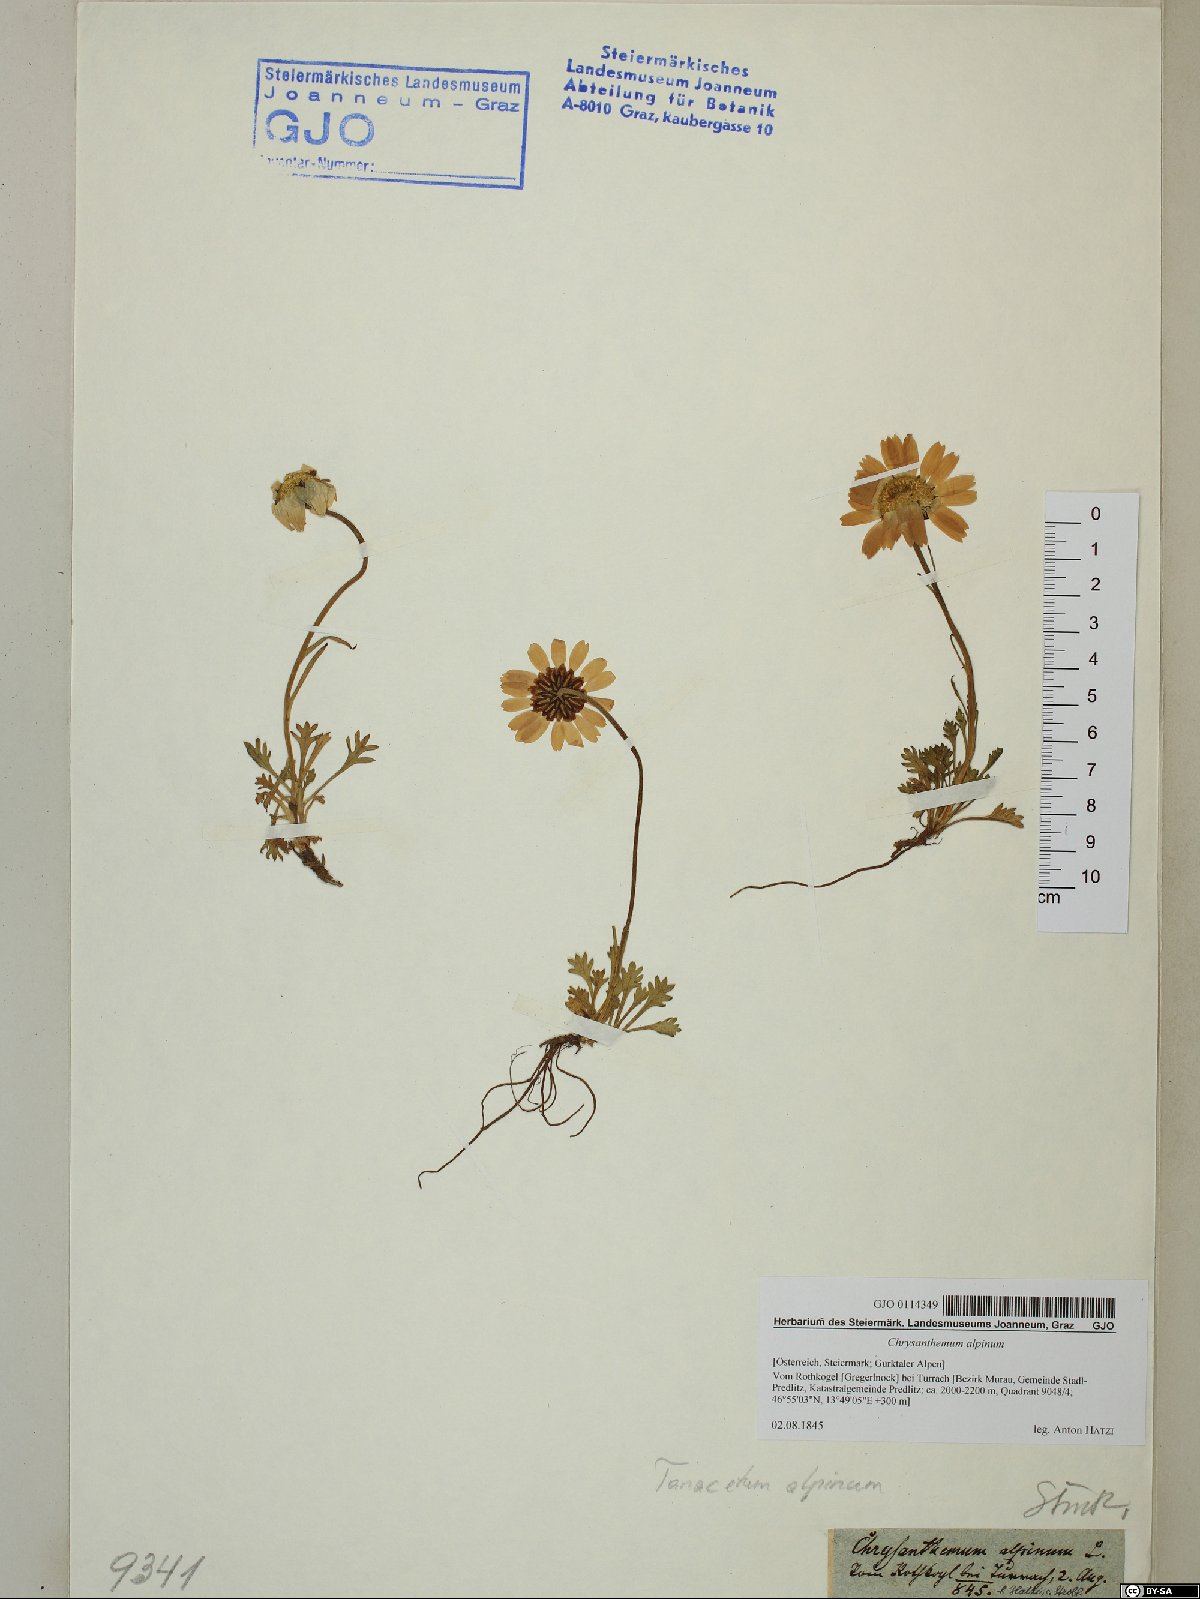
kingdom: Plantae
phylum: Tracheophyta
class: Magnoliopsida
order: Asterales
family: Asteraceae
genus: Leucanthemopsis
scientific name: Leucanthemopsis alpina
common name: Alpine moon daisy
